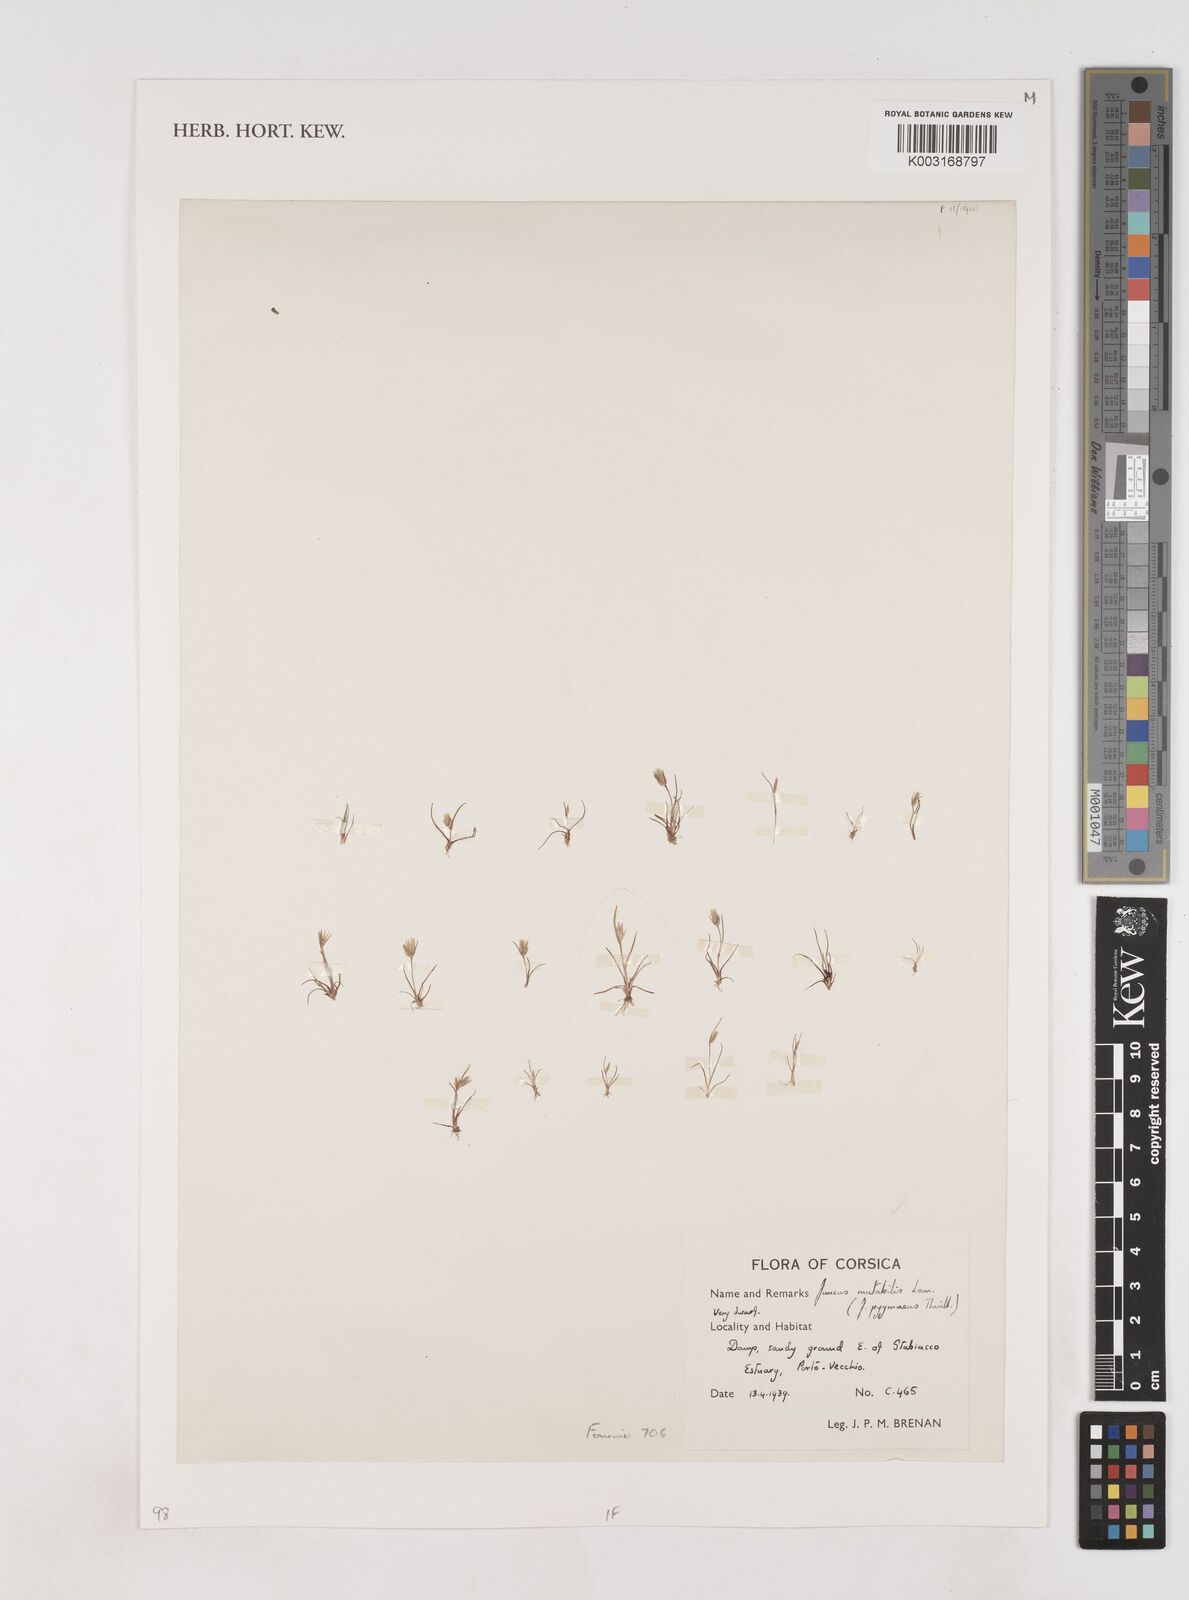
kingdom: Plantae
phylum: Tracheophyta
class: Liliopsida
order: Poales
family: Juncaceae
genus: Juncus
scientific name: Juncus pygmaeus
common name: Pigmy rush
